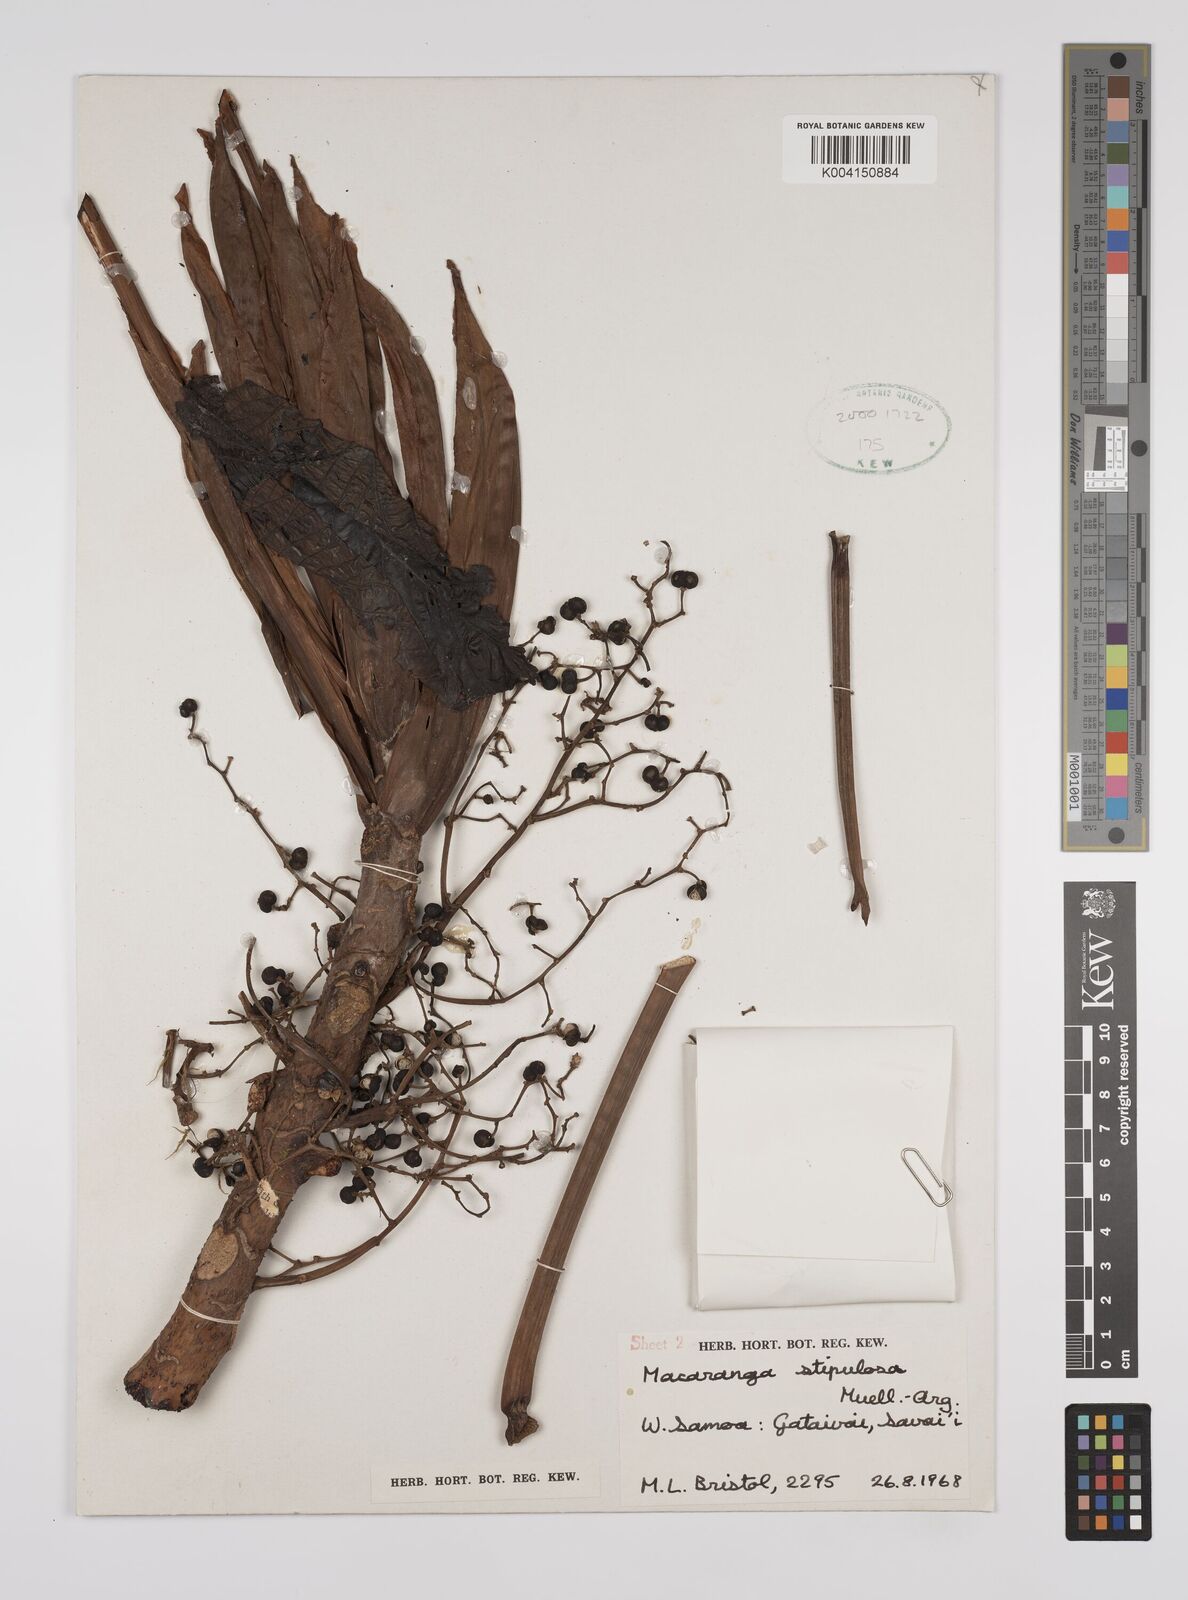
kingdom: Plantae
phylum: Tracheophyta
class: Magnoliopsida
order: Malpighiales
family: Euphorbiaceae
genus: Macaranga
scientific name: Macaranga stipulosa
